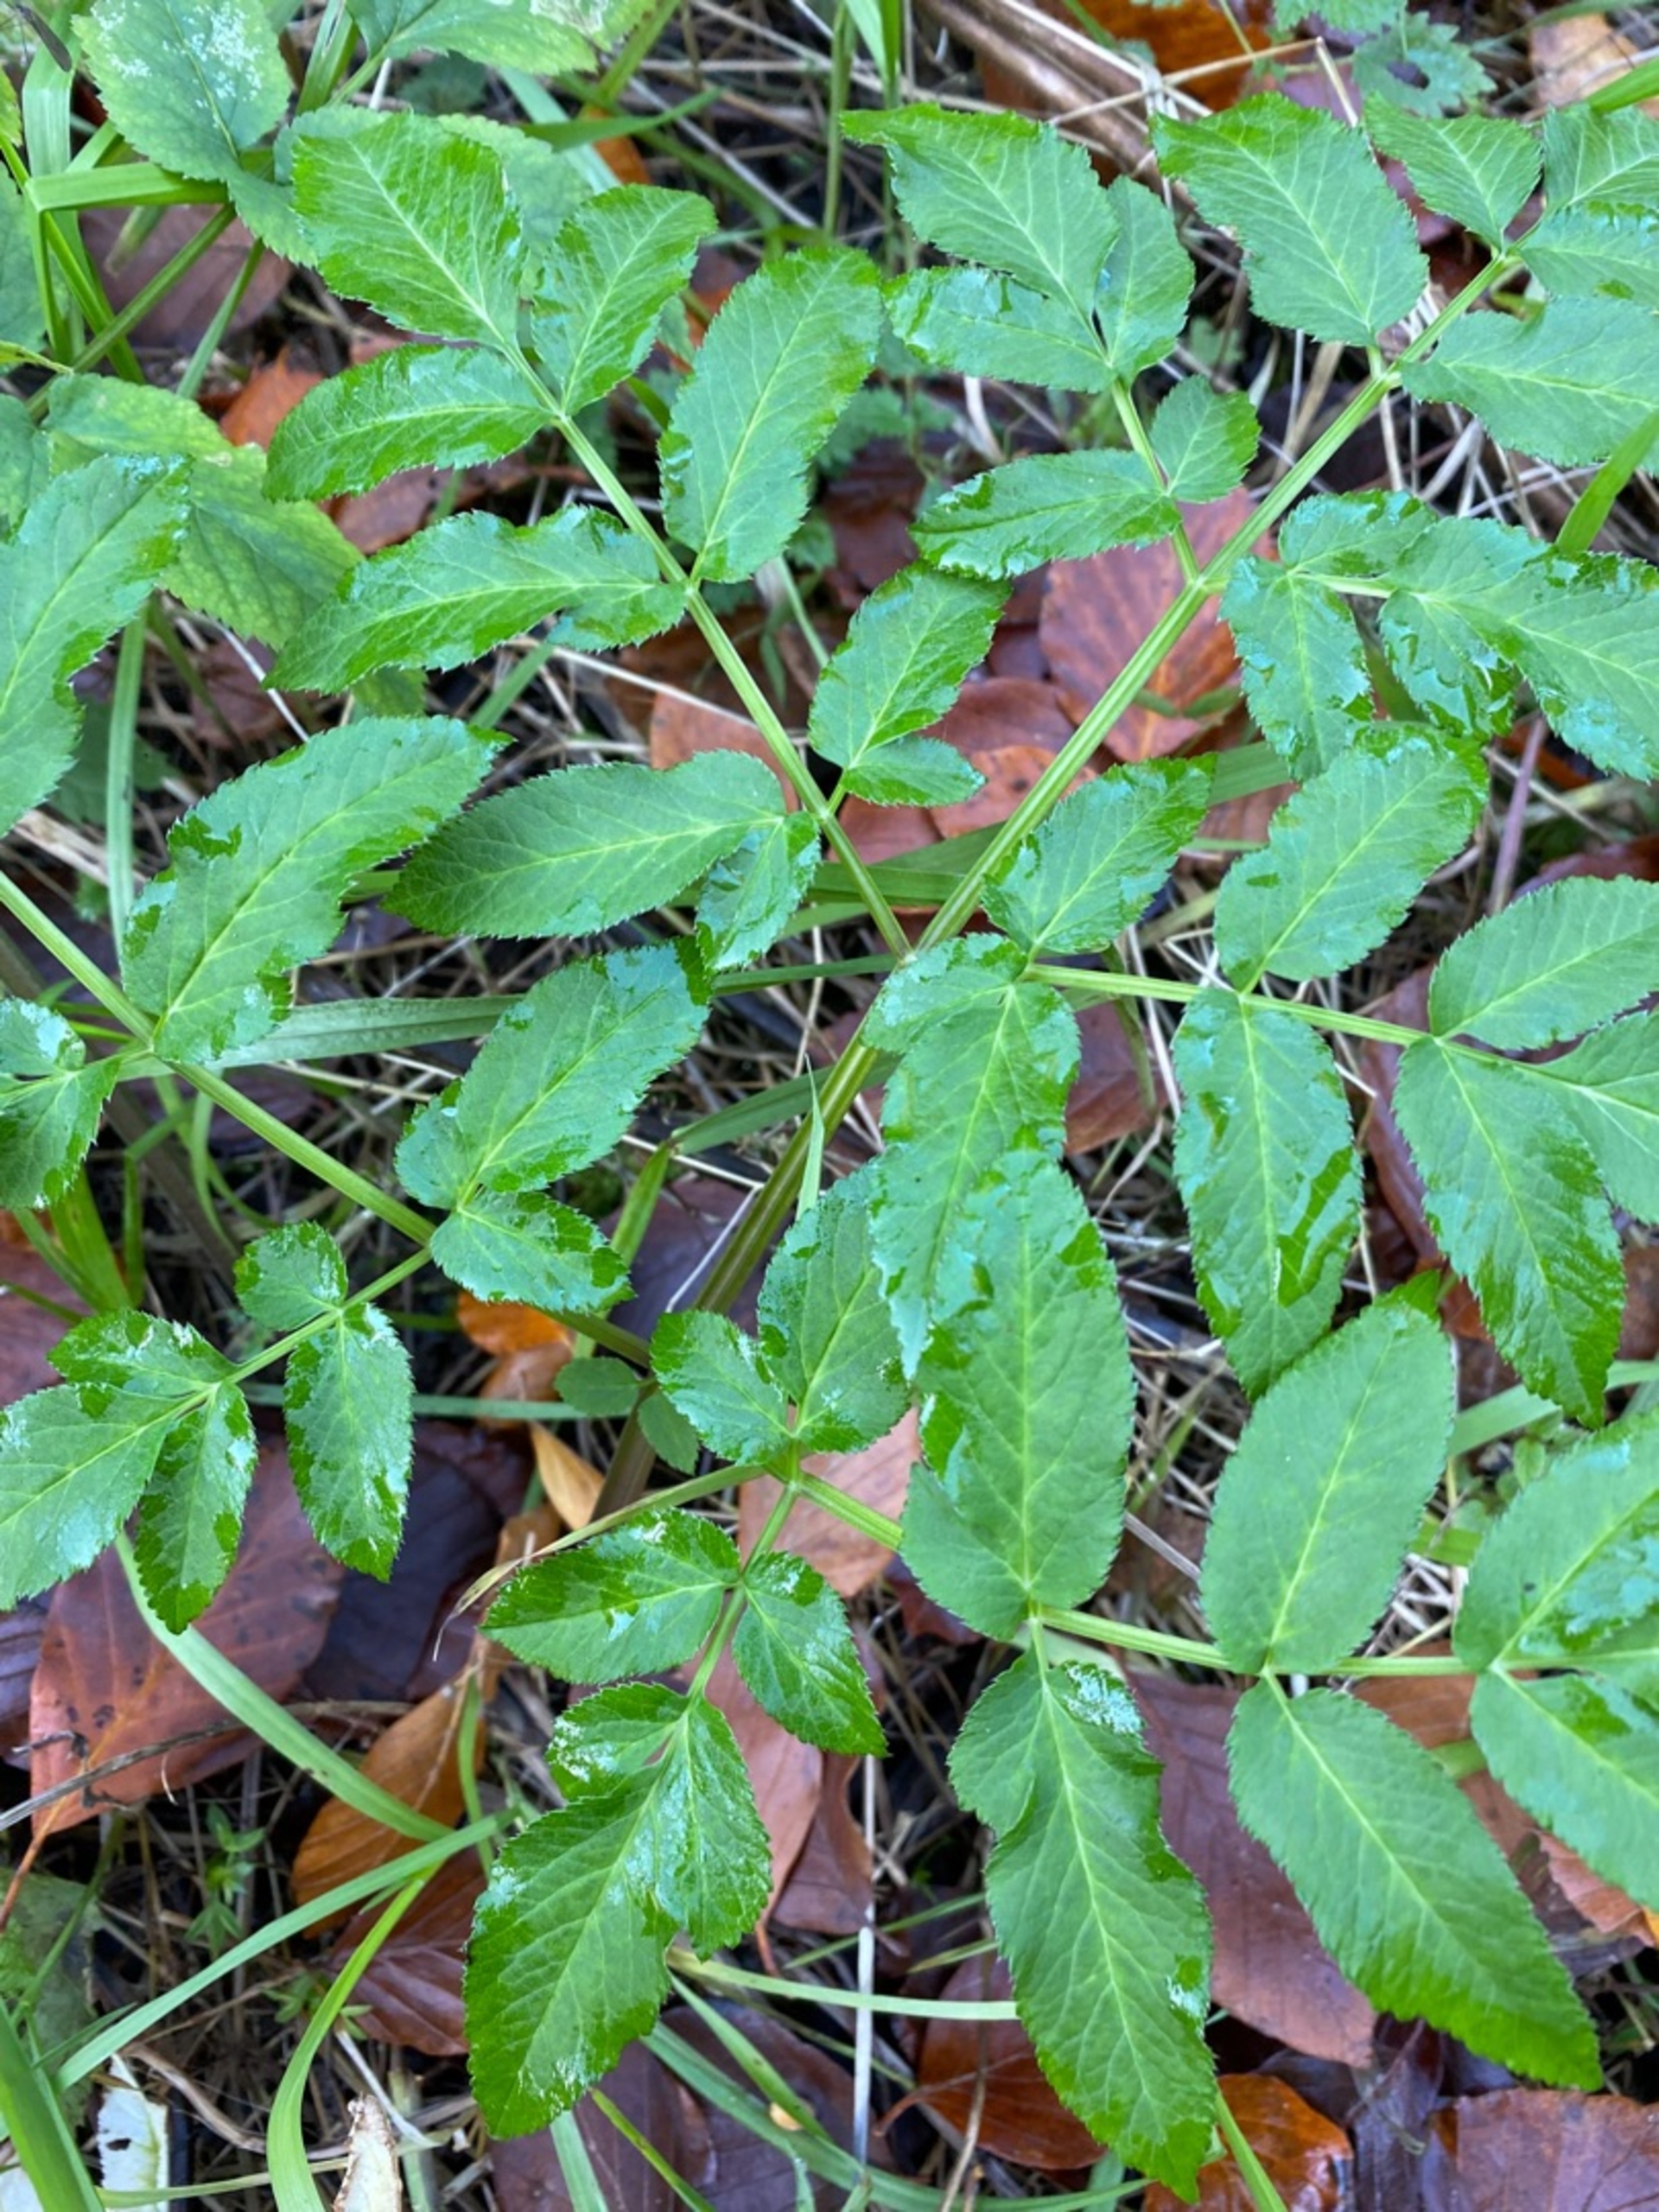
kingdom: Plantae
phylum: Tracheophyta
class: Magnoliopsida
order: Apiales
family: Apiaceae
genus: Angelica
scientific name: Angelica sylvestris
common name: Angelik
